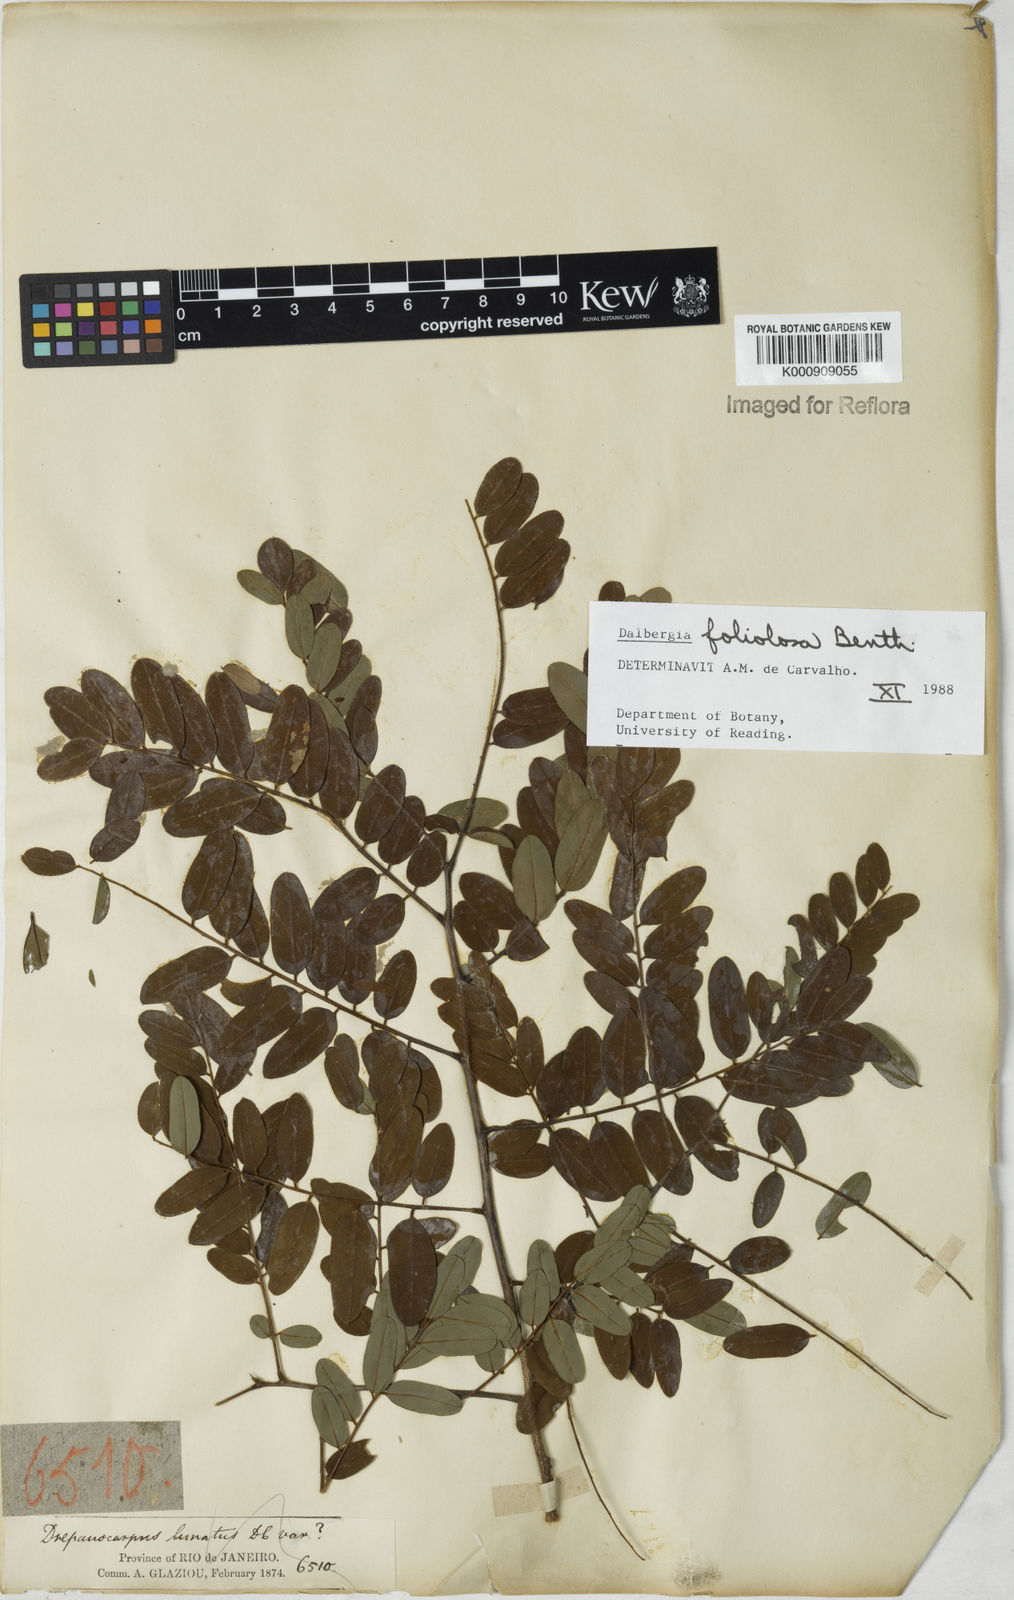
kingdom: Plantae
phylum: Tracheophyta
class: Magnoliopsida
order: Fabales
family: Fabaceae
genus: Dalbergia
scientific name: Dalbergia foliolosa
